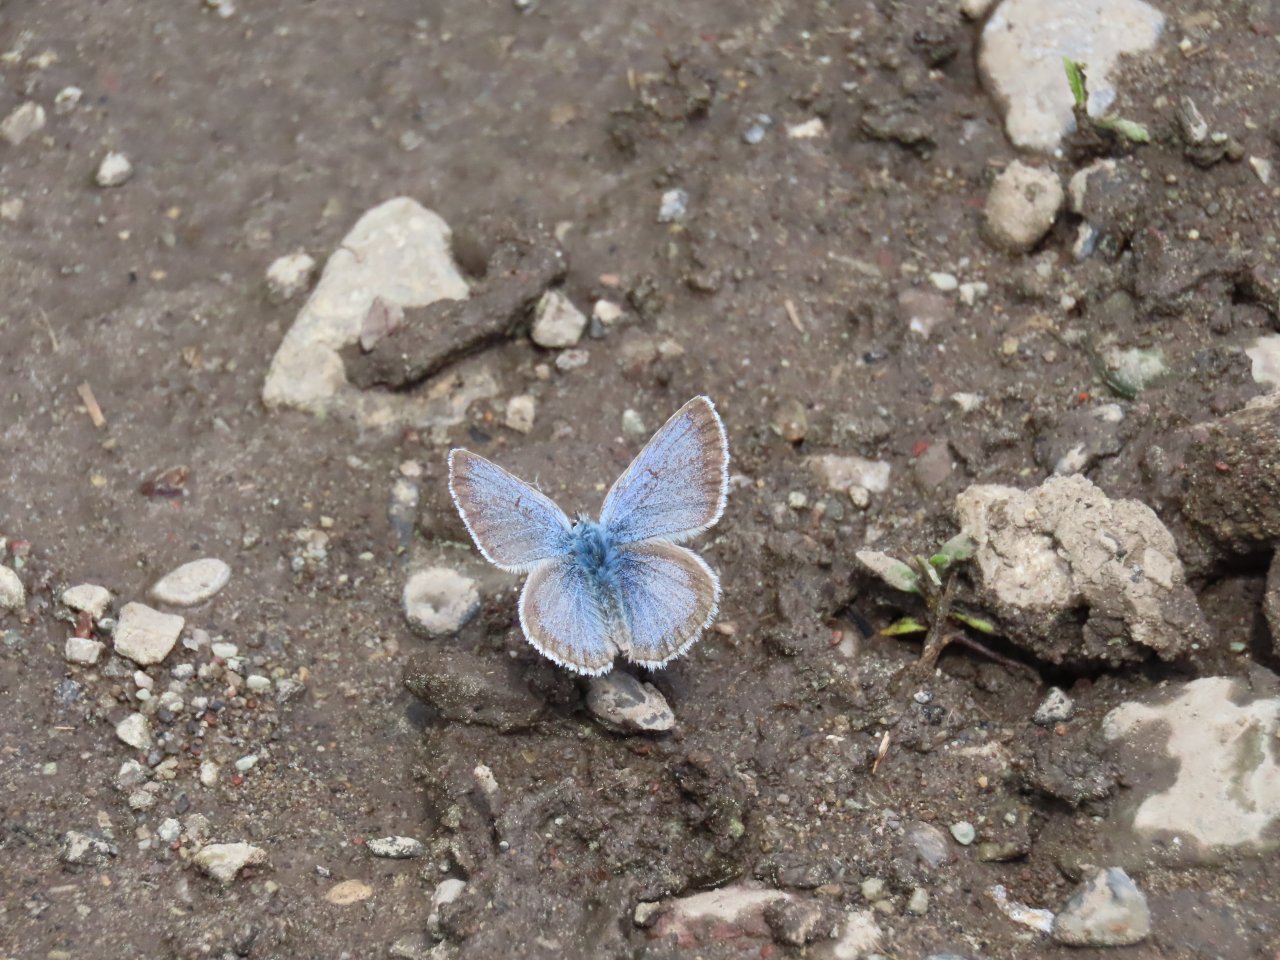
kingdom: Animalia
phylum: Arthropoda
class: Insecta
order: Lepidoptera
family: Lycaenidae
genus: Icaricia
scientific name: Icaricia icarioides
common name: Boisduval's Blue
